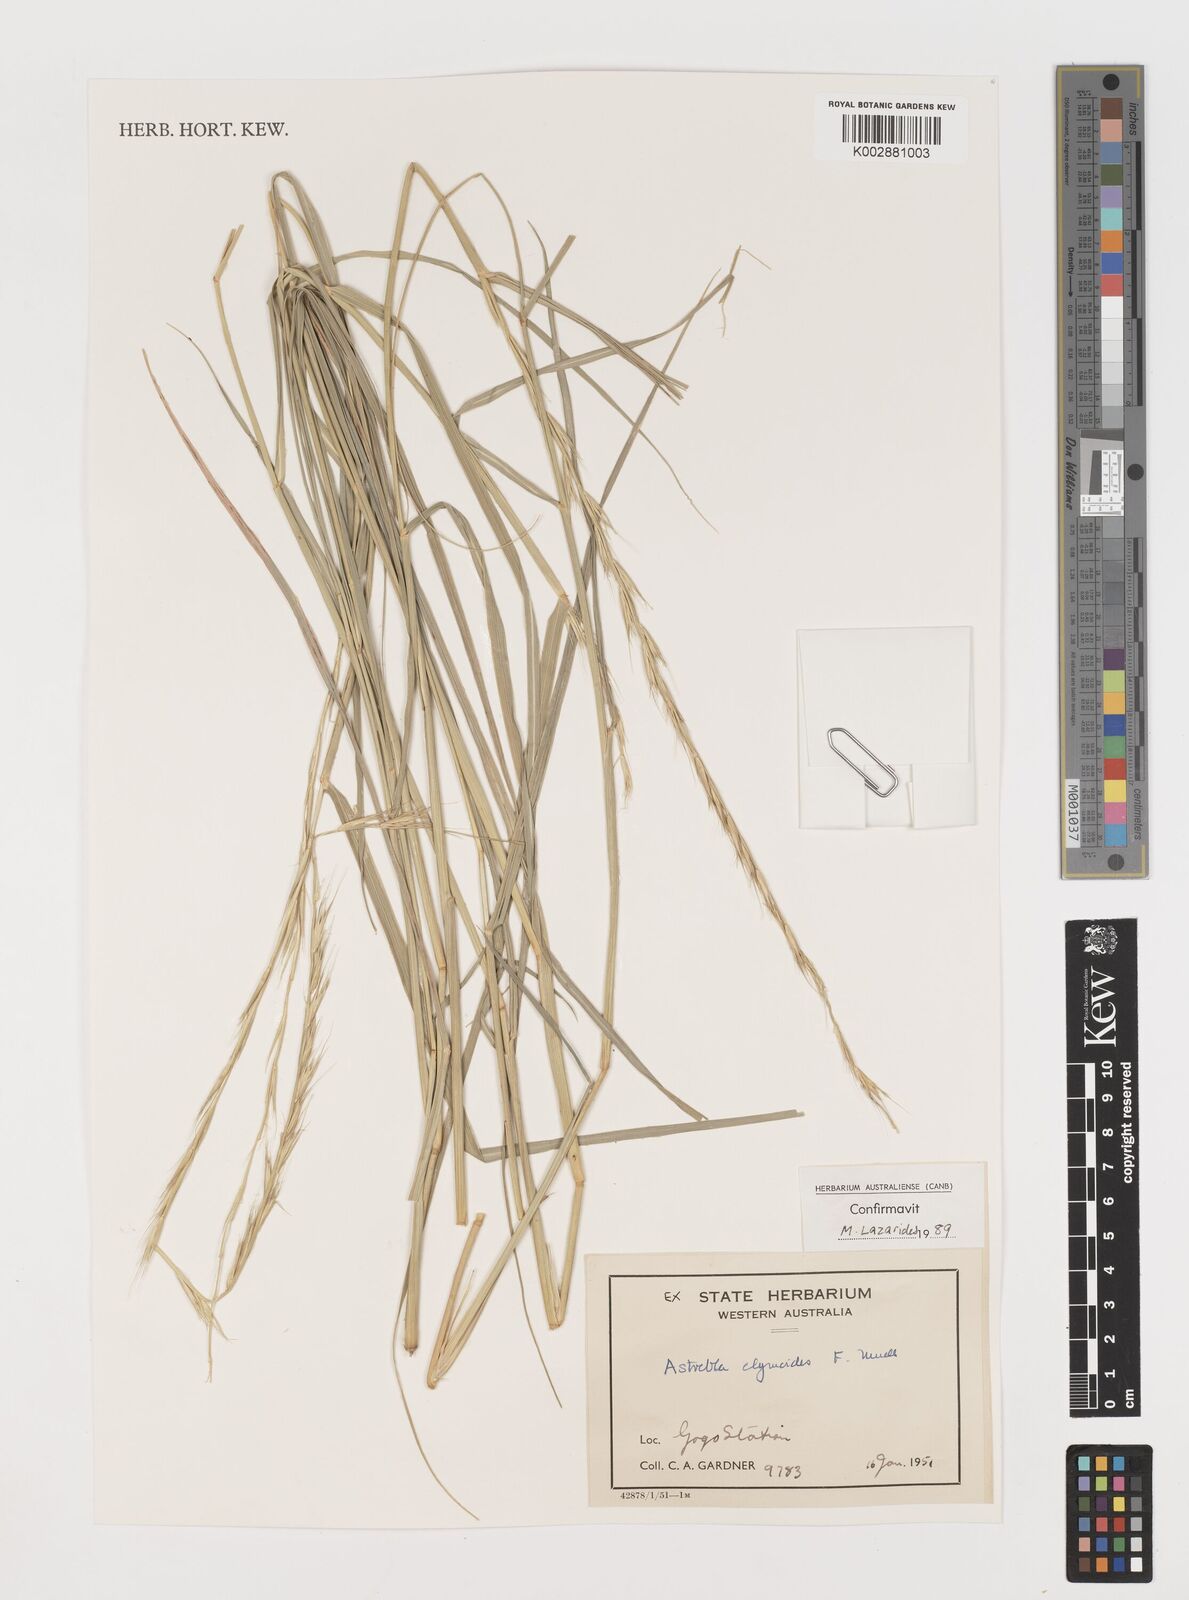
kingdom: Plantae
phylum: Tracheophyta
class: Liliopsida
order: Poales
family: Poaceae
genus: Astrebla
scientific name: Astrebla elymoides
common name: Hoop mitchell grass
